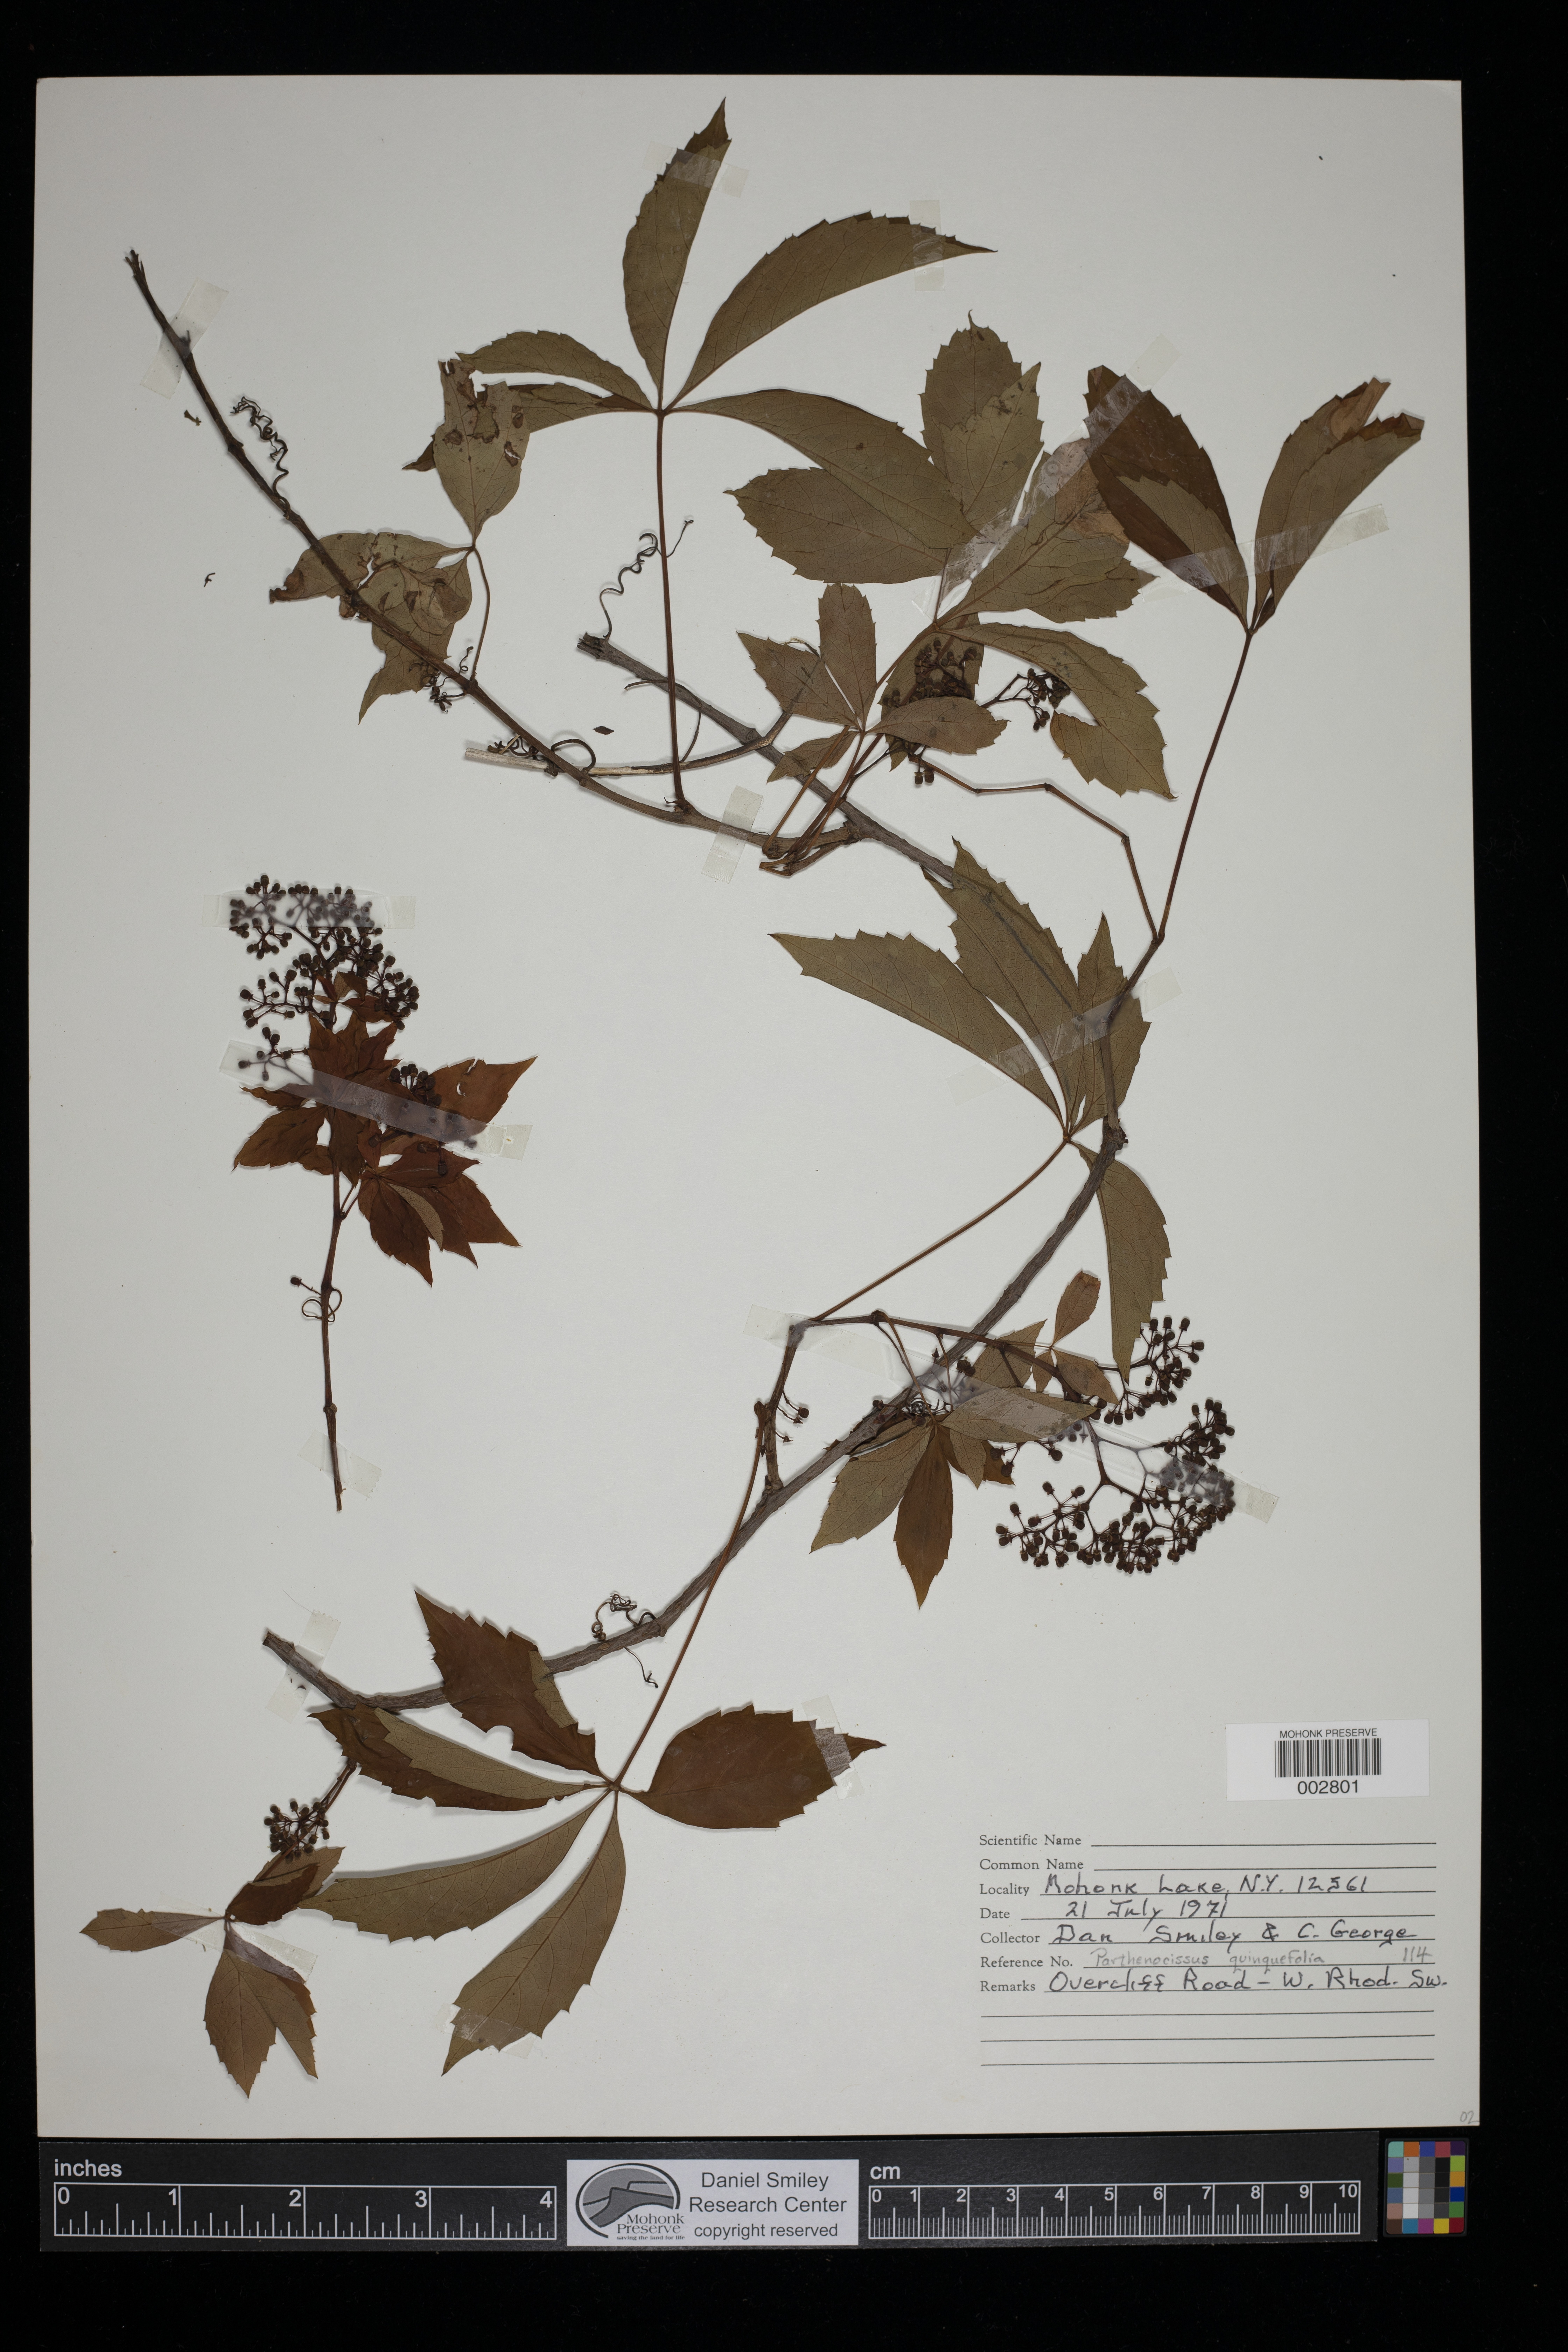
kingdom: Plantae
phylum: Tracheophyta
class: Magnoliopsida
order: Vitales
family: Vitaceae
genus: Parthenocissus
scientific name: Parthenocissus quinquefolia
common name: Virginia-creeper
